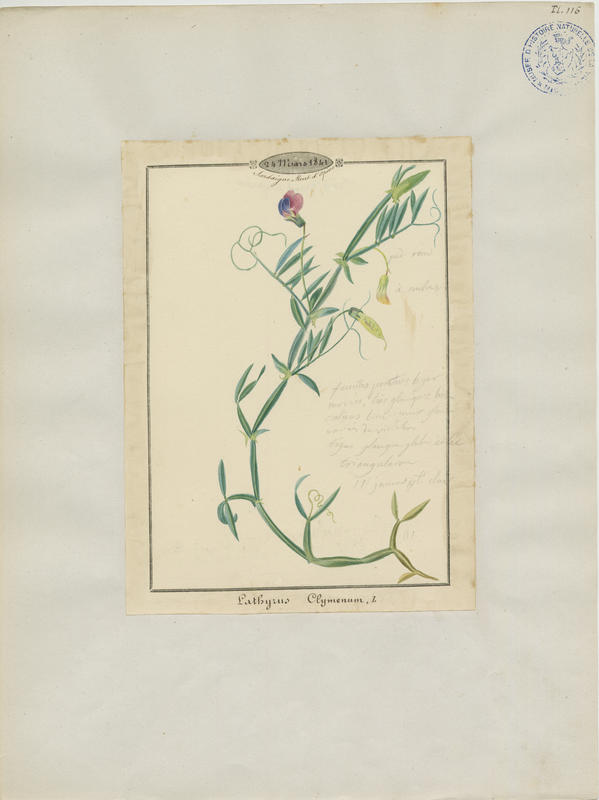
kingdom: Plantae
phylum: Tracheophyta
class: Magnoliopsida
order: Fabales
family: Fabaceae
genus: Lathyrus
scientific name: Lathyrus clymenum
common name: Spanish vetchling
